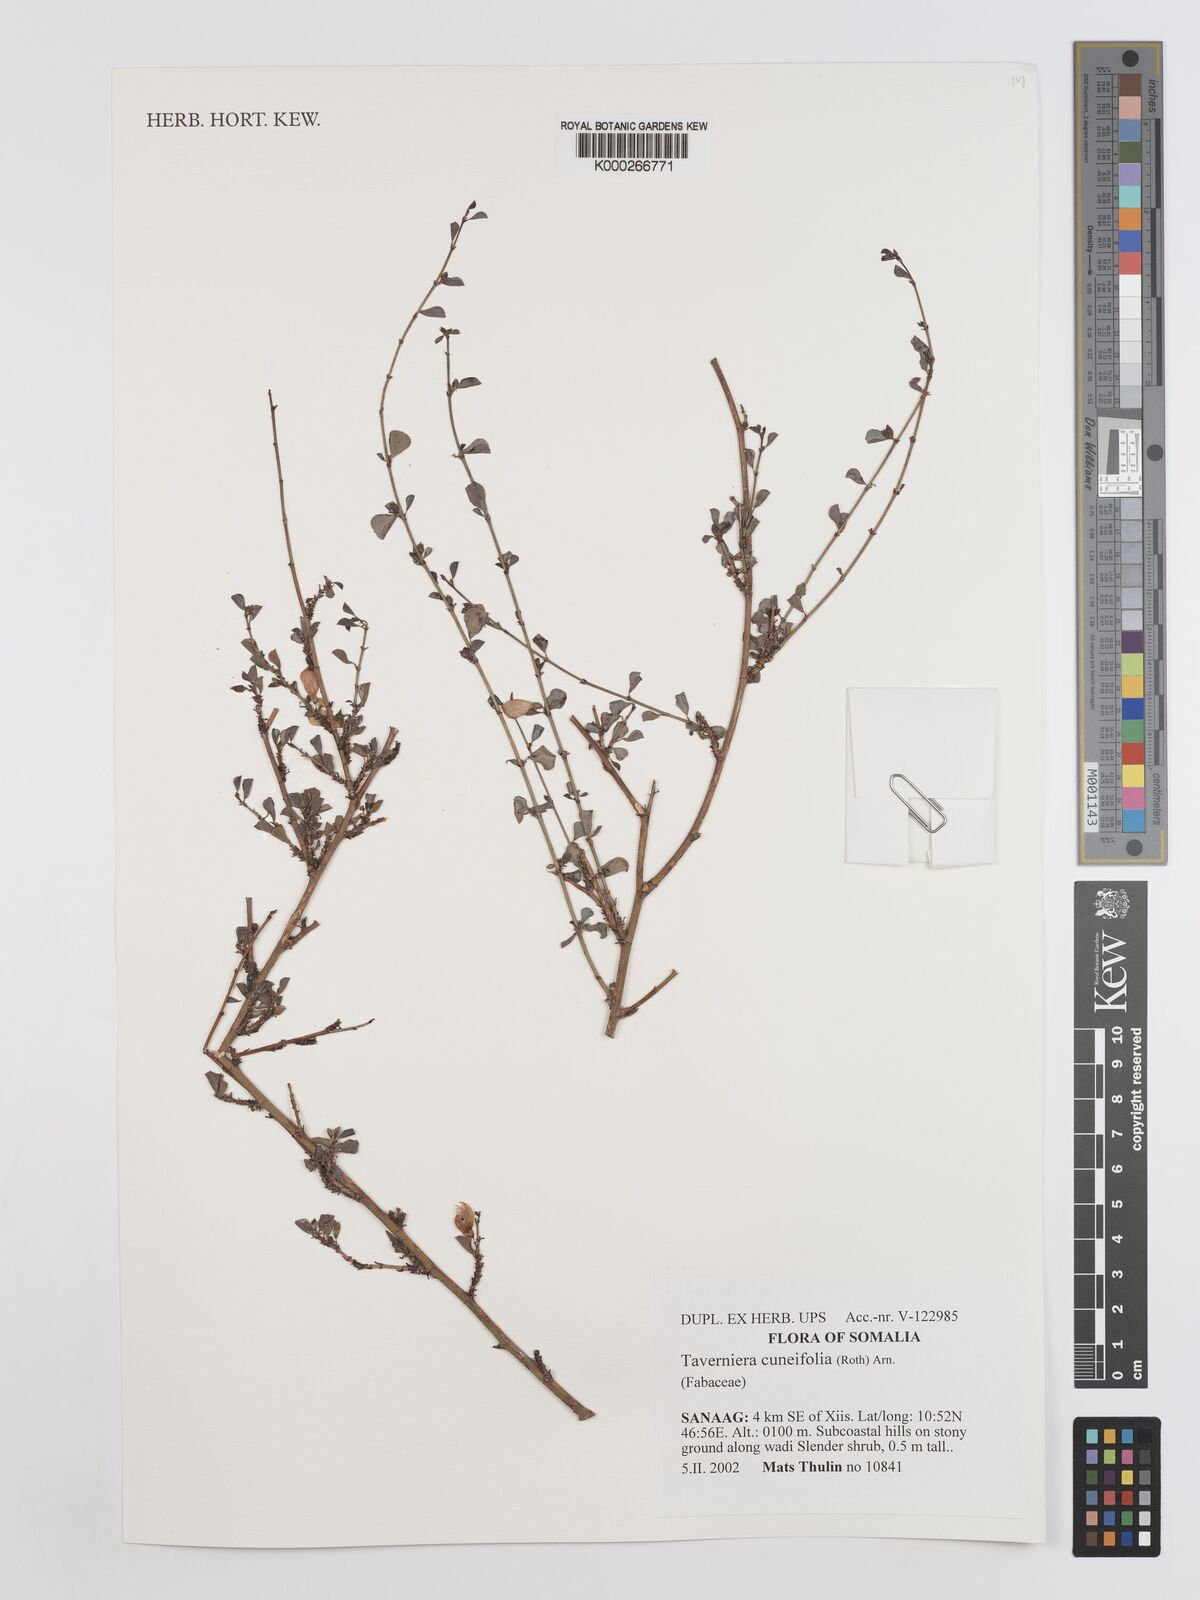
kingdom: Plantae
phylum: Tracheophyta
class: Magnoliopsida
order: Fabales
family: Fabaceae
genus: Taverniera
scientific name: Taverniera cuneifolia
